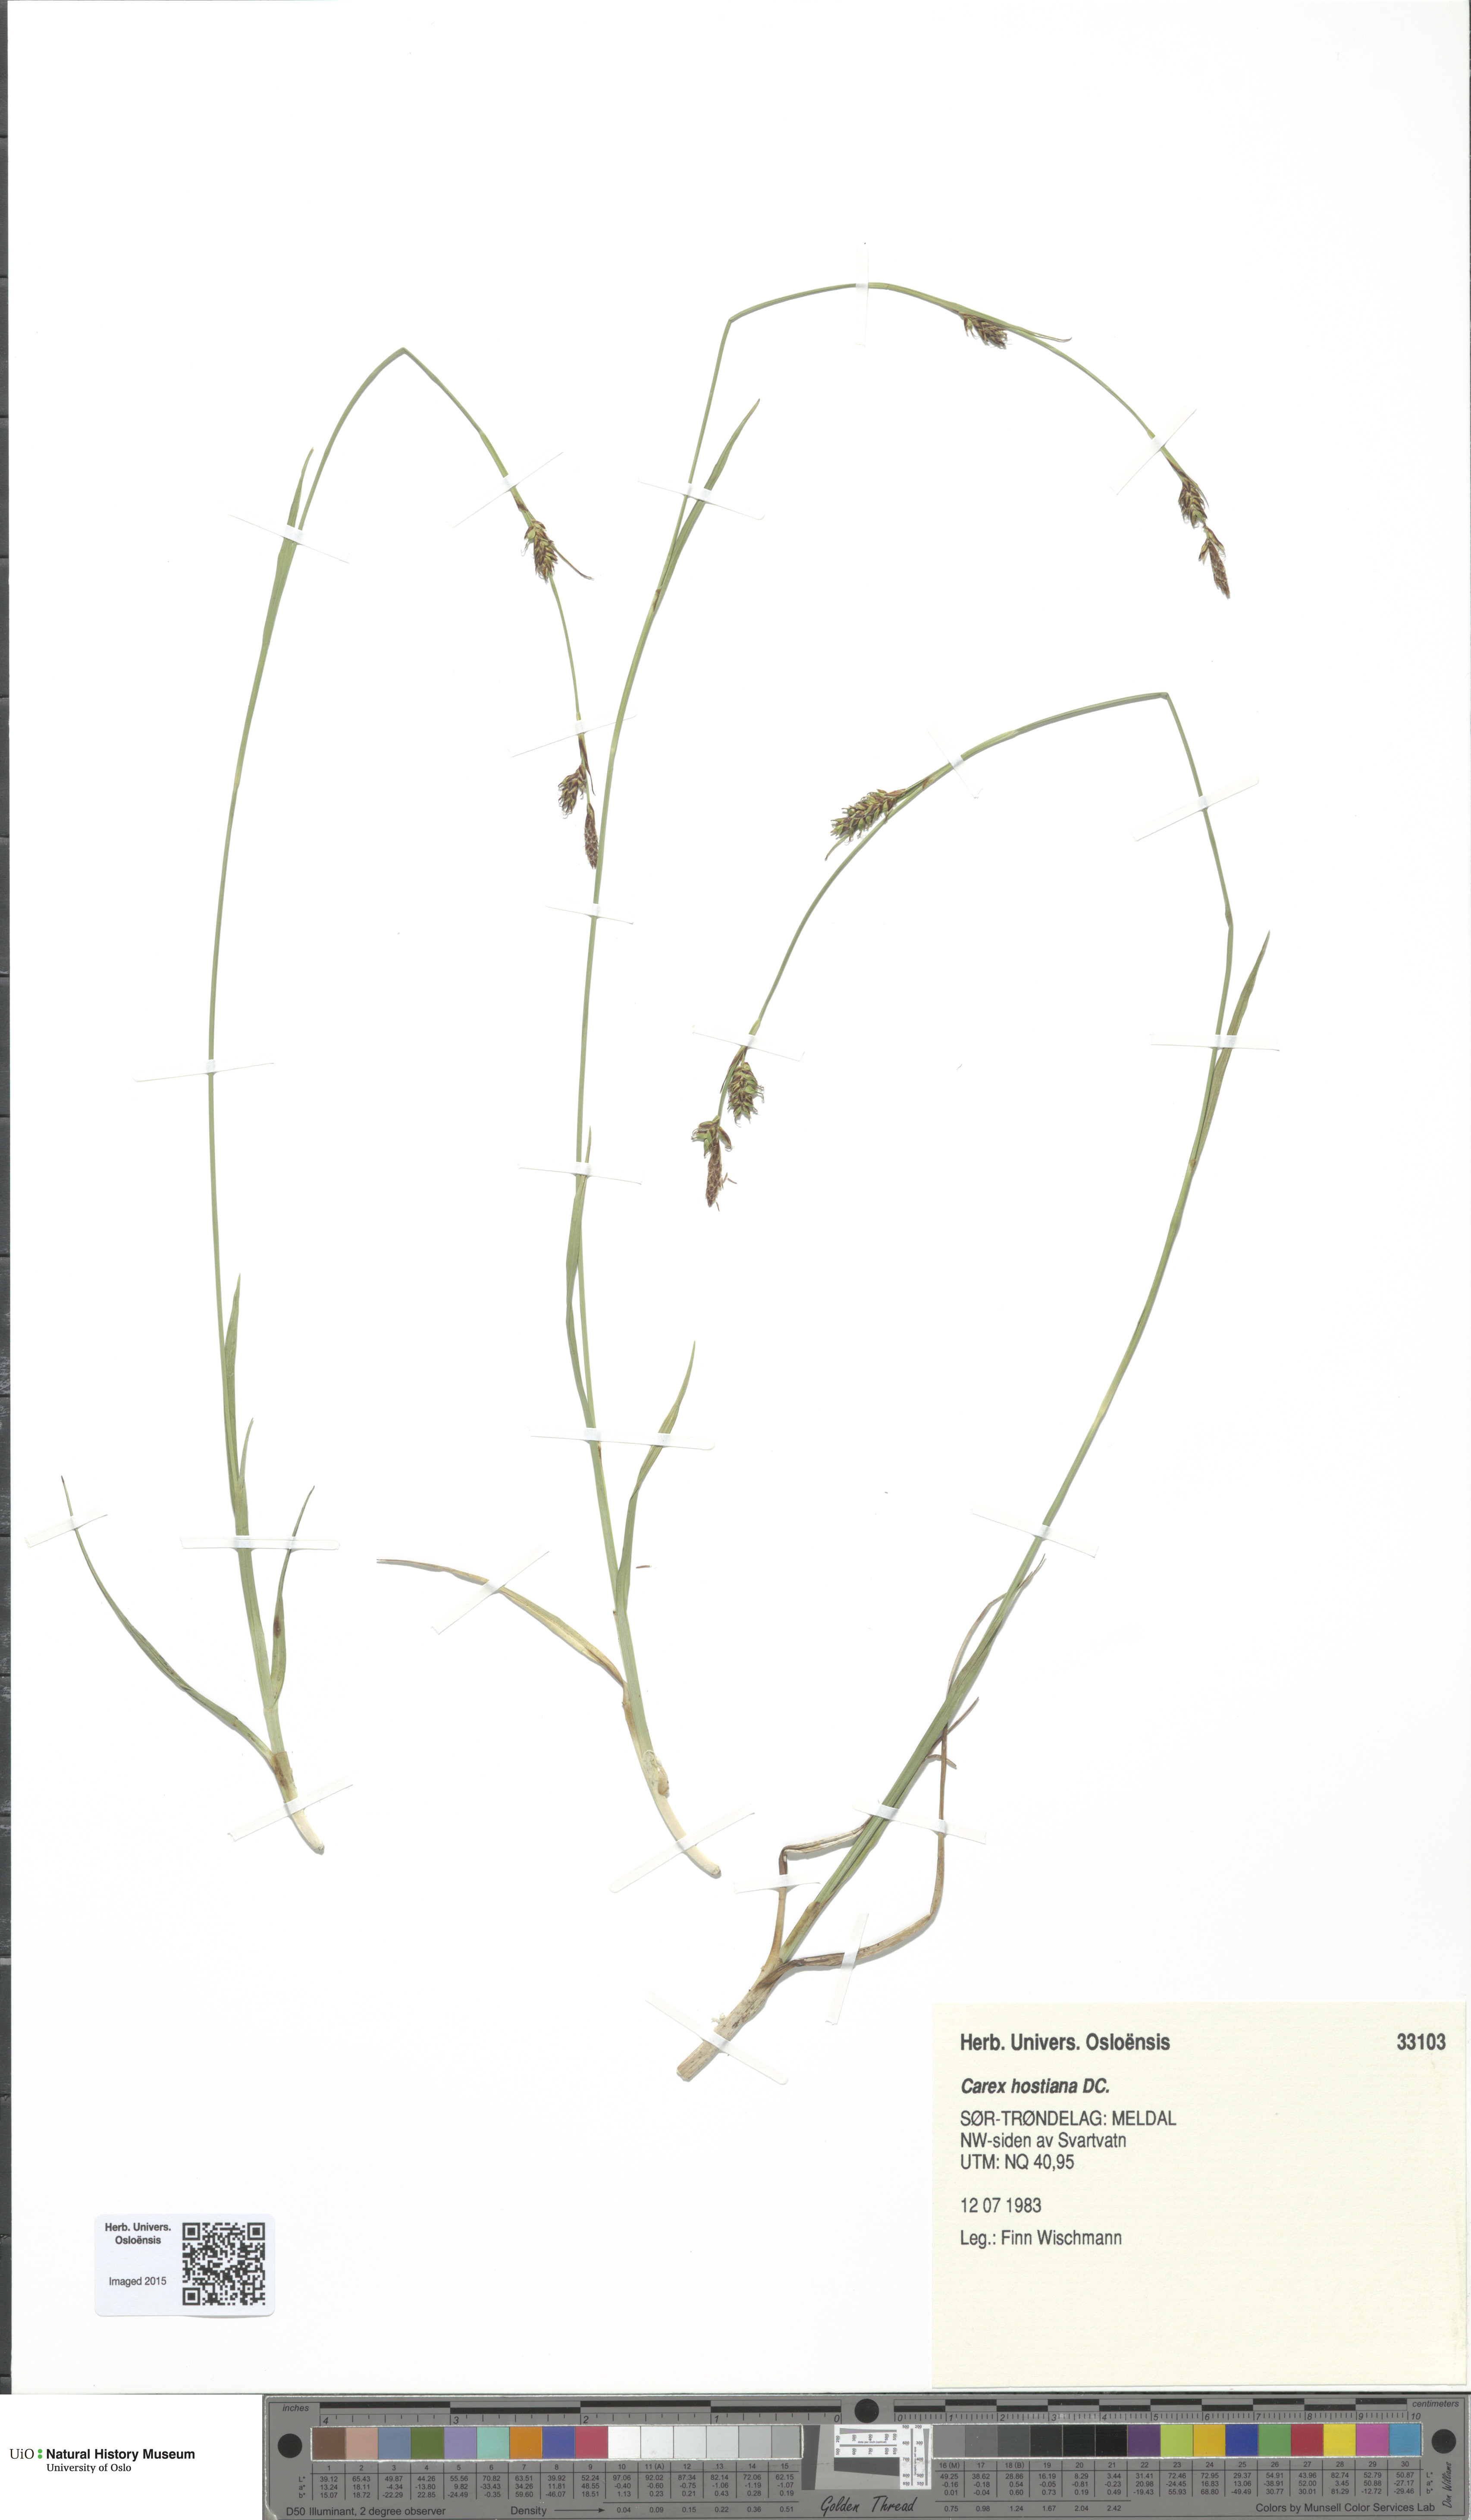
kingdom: Plantae
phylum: Tracheophyta
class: Liliopsida
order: Poales
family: Cyperaceae
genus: Carex
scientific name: Carex hostiana
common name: Tawny sedge
